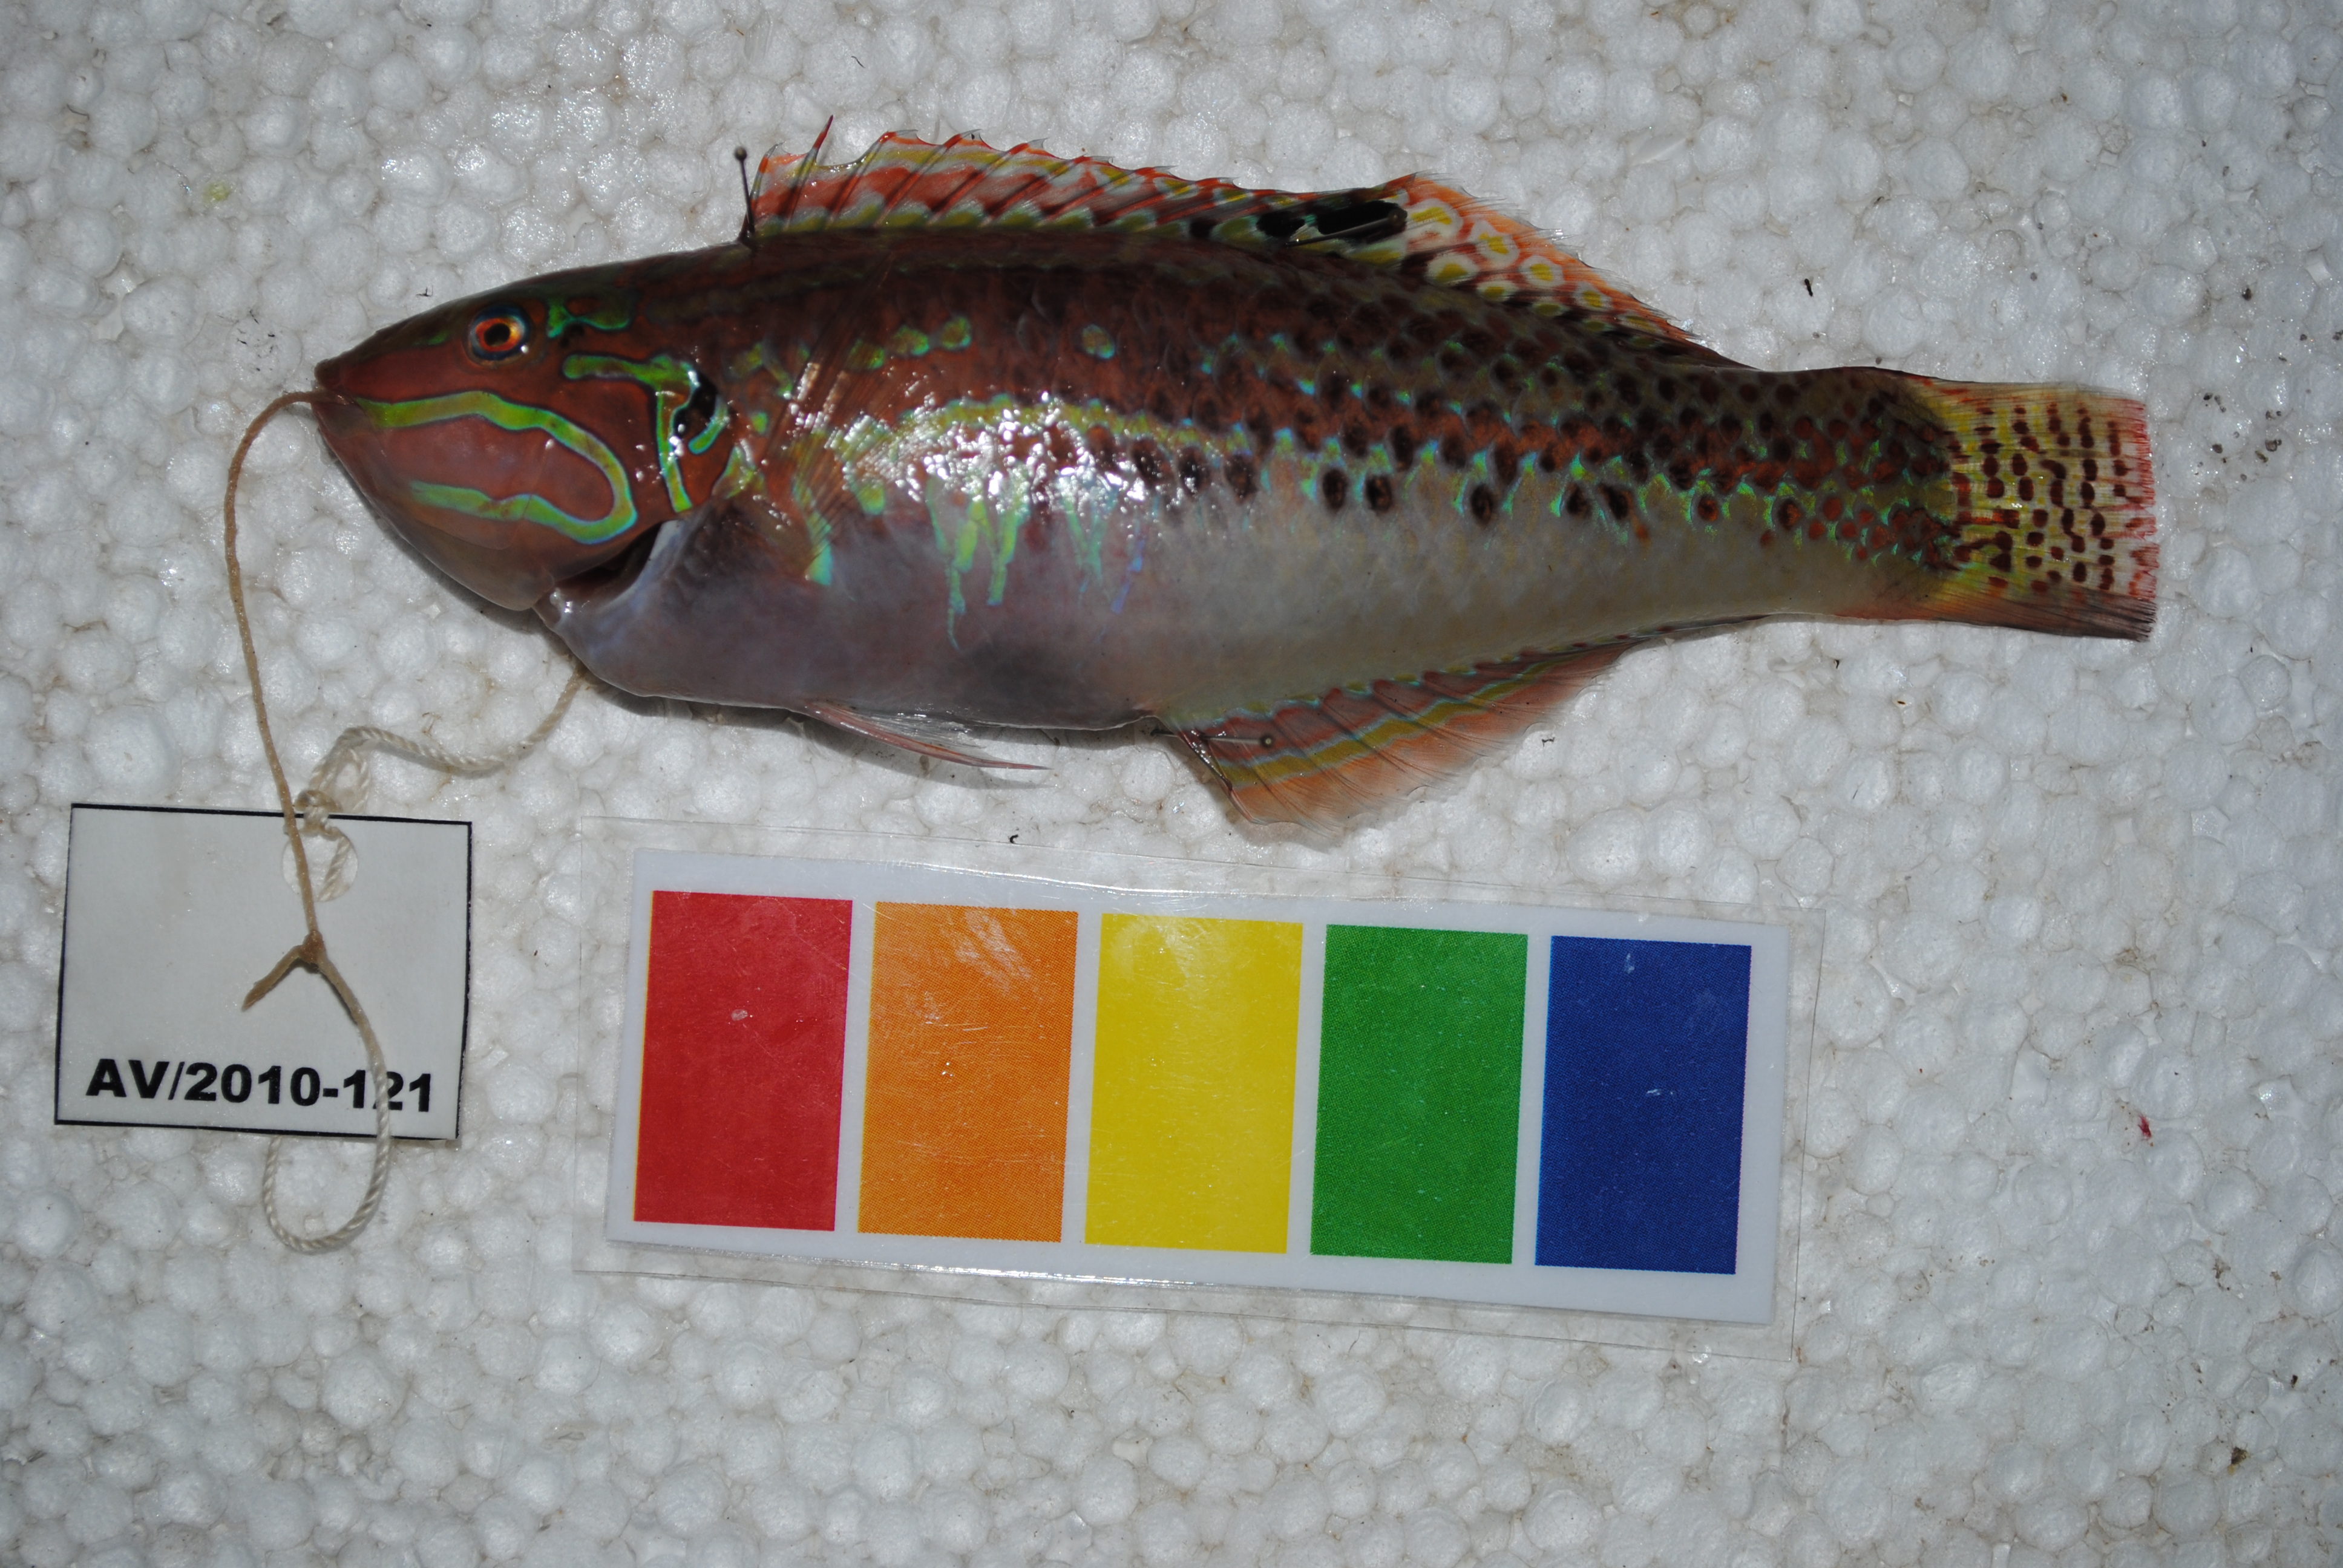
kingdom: Animalia
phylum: Chordata
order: Perciformes
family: Labridae
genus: Halichoeres
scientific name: Halichoeres zulu
